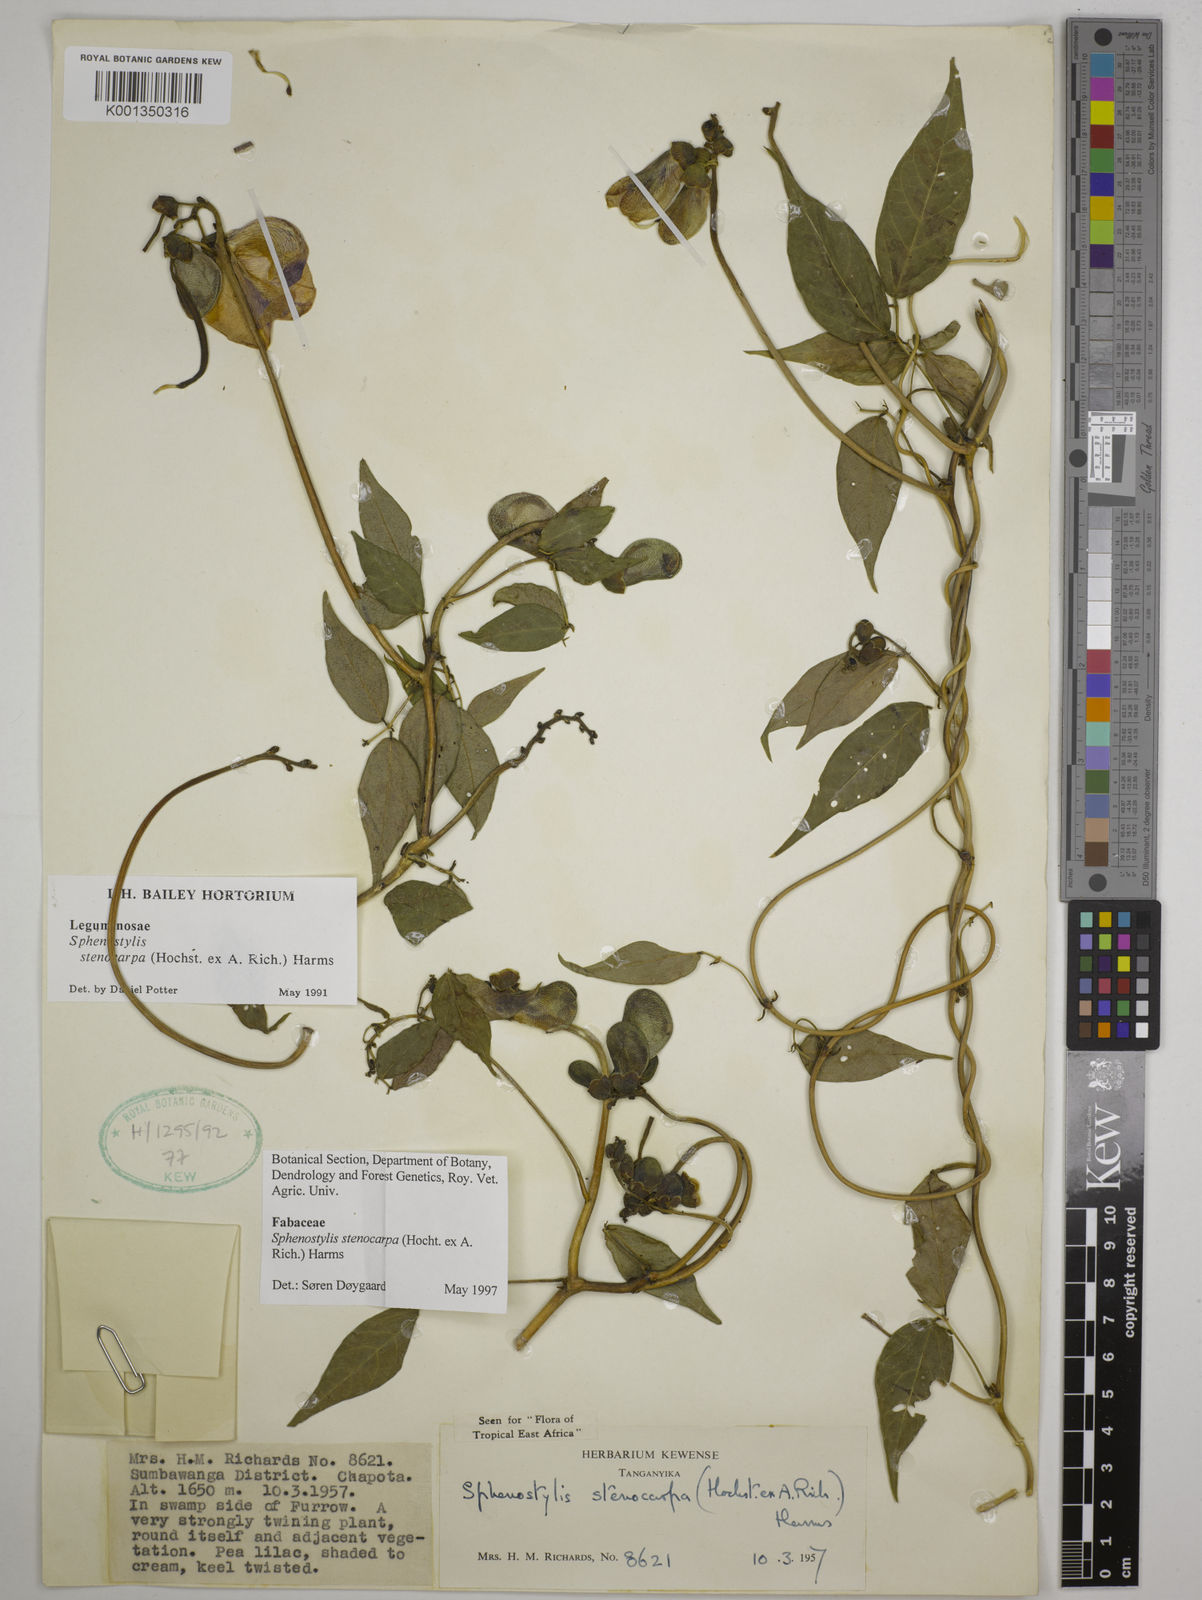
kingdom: Plantae
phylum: Tracheophyta
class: Magnoliopsida
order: Fabales
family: Fabaceae
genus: Sphenostylis
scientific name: Sphenostylis stenocarpa
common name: Yam-pea
